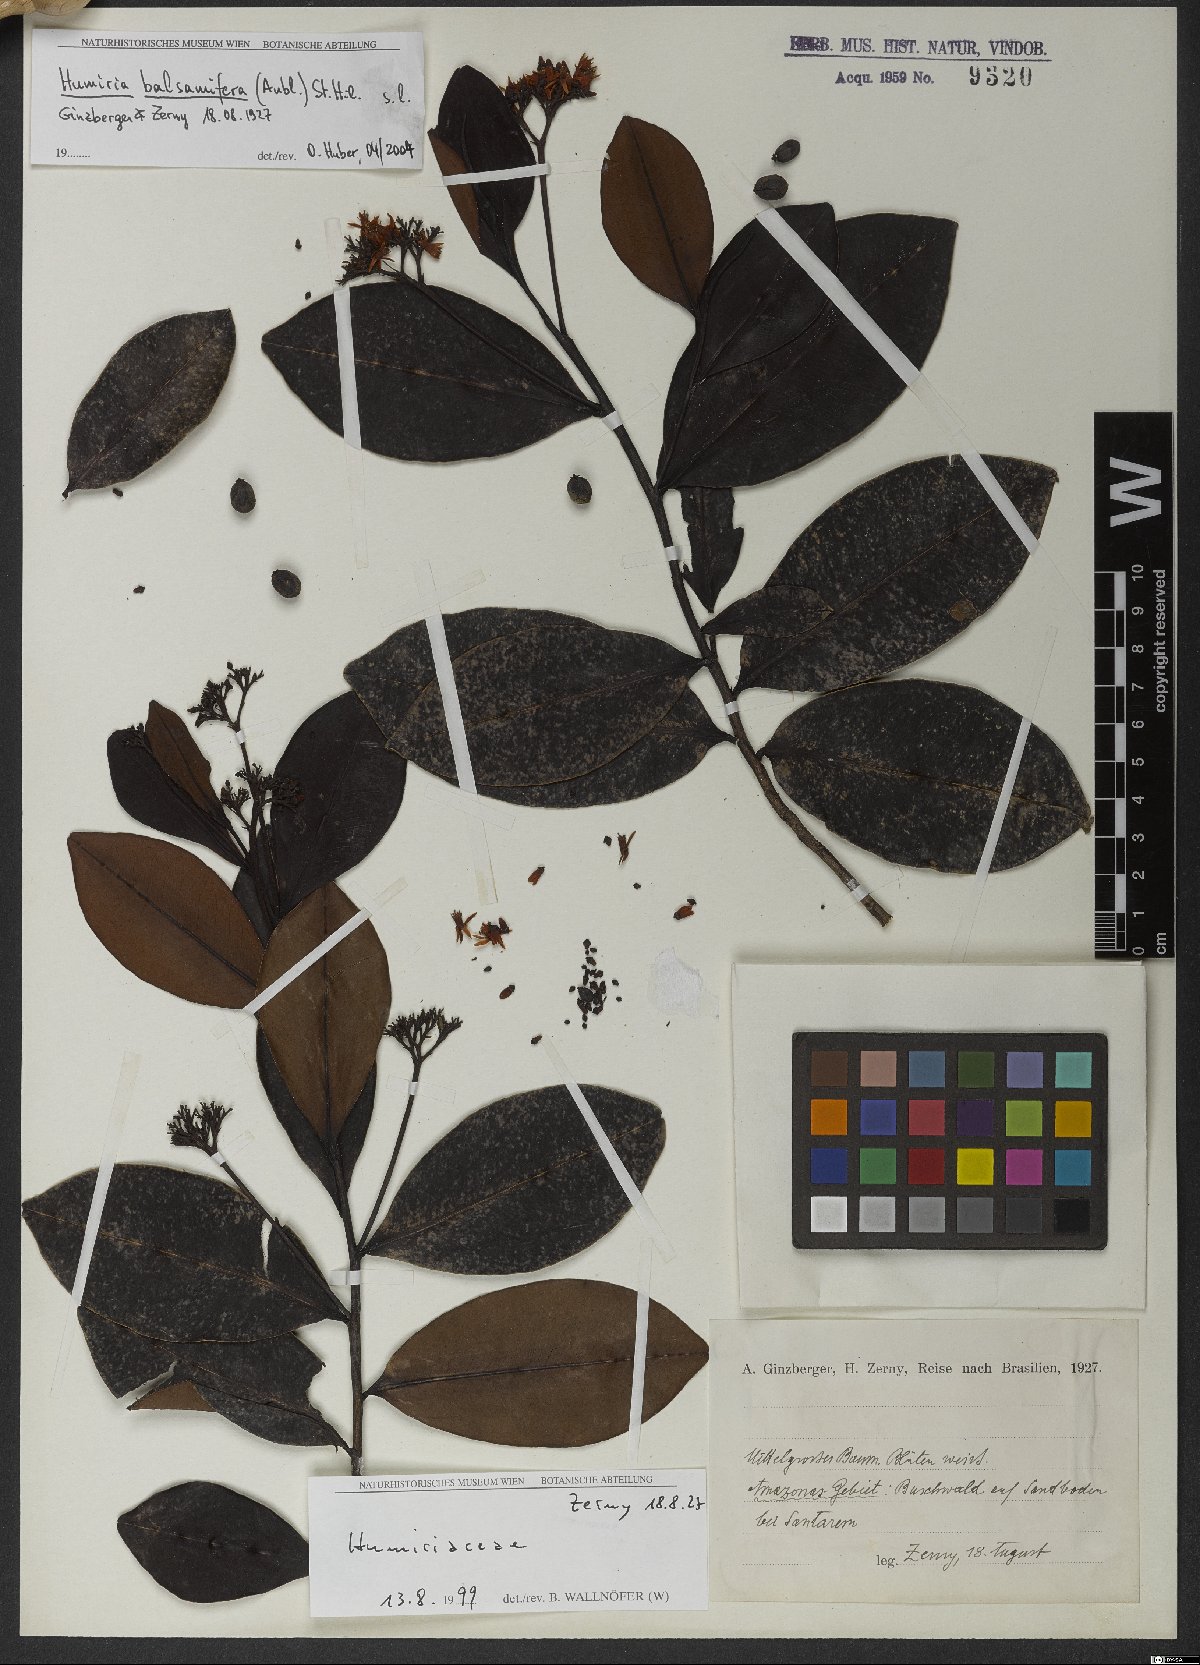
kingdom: Plantae
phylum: Tracheophyta
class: Magnoliopsida
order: Malpighiales
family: Humiriaceae
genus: Humiria
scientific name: Humiria balsamifera
